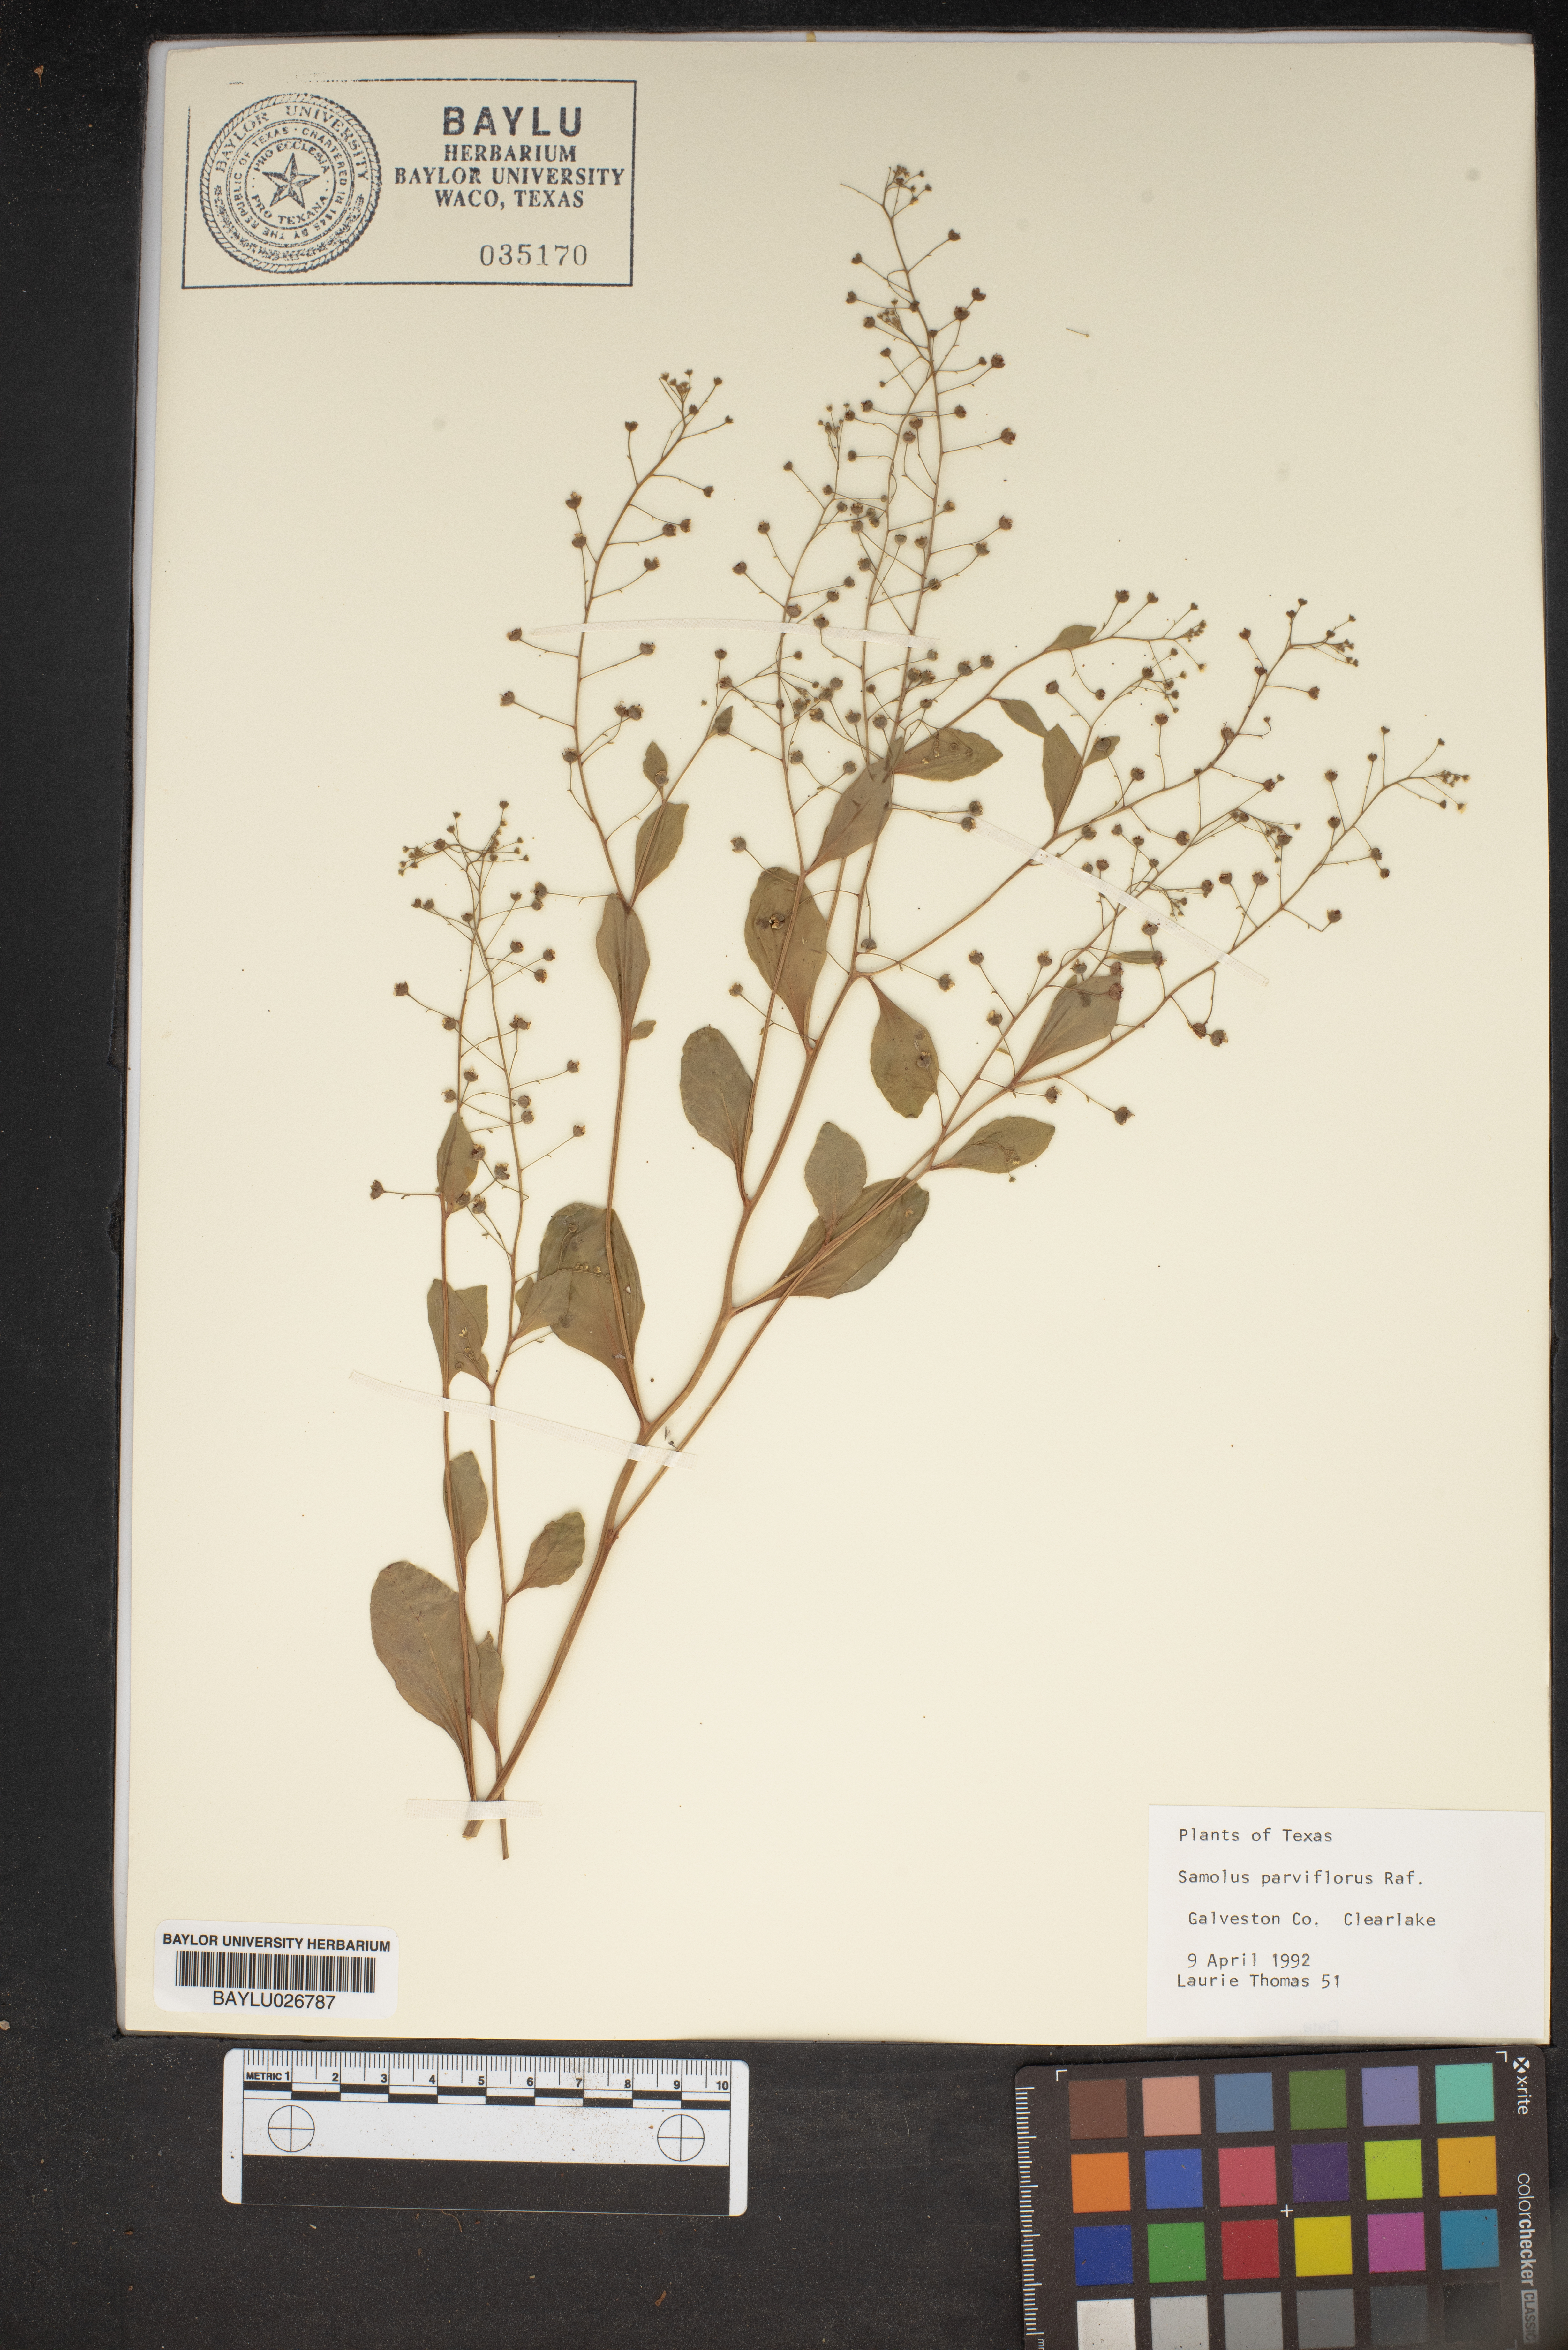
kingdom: Plantae
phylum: Tracheophyta
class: Magnoliopsida
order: Ericales
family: Primulaceae
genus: Samolus
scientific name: Samolus parviflorus
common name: False water pimpernel
